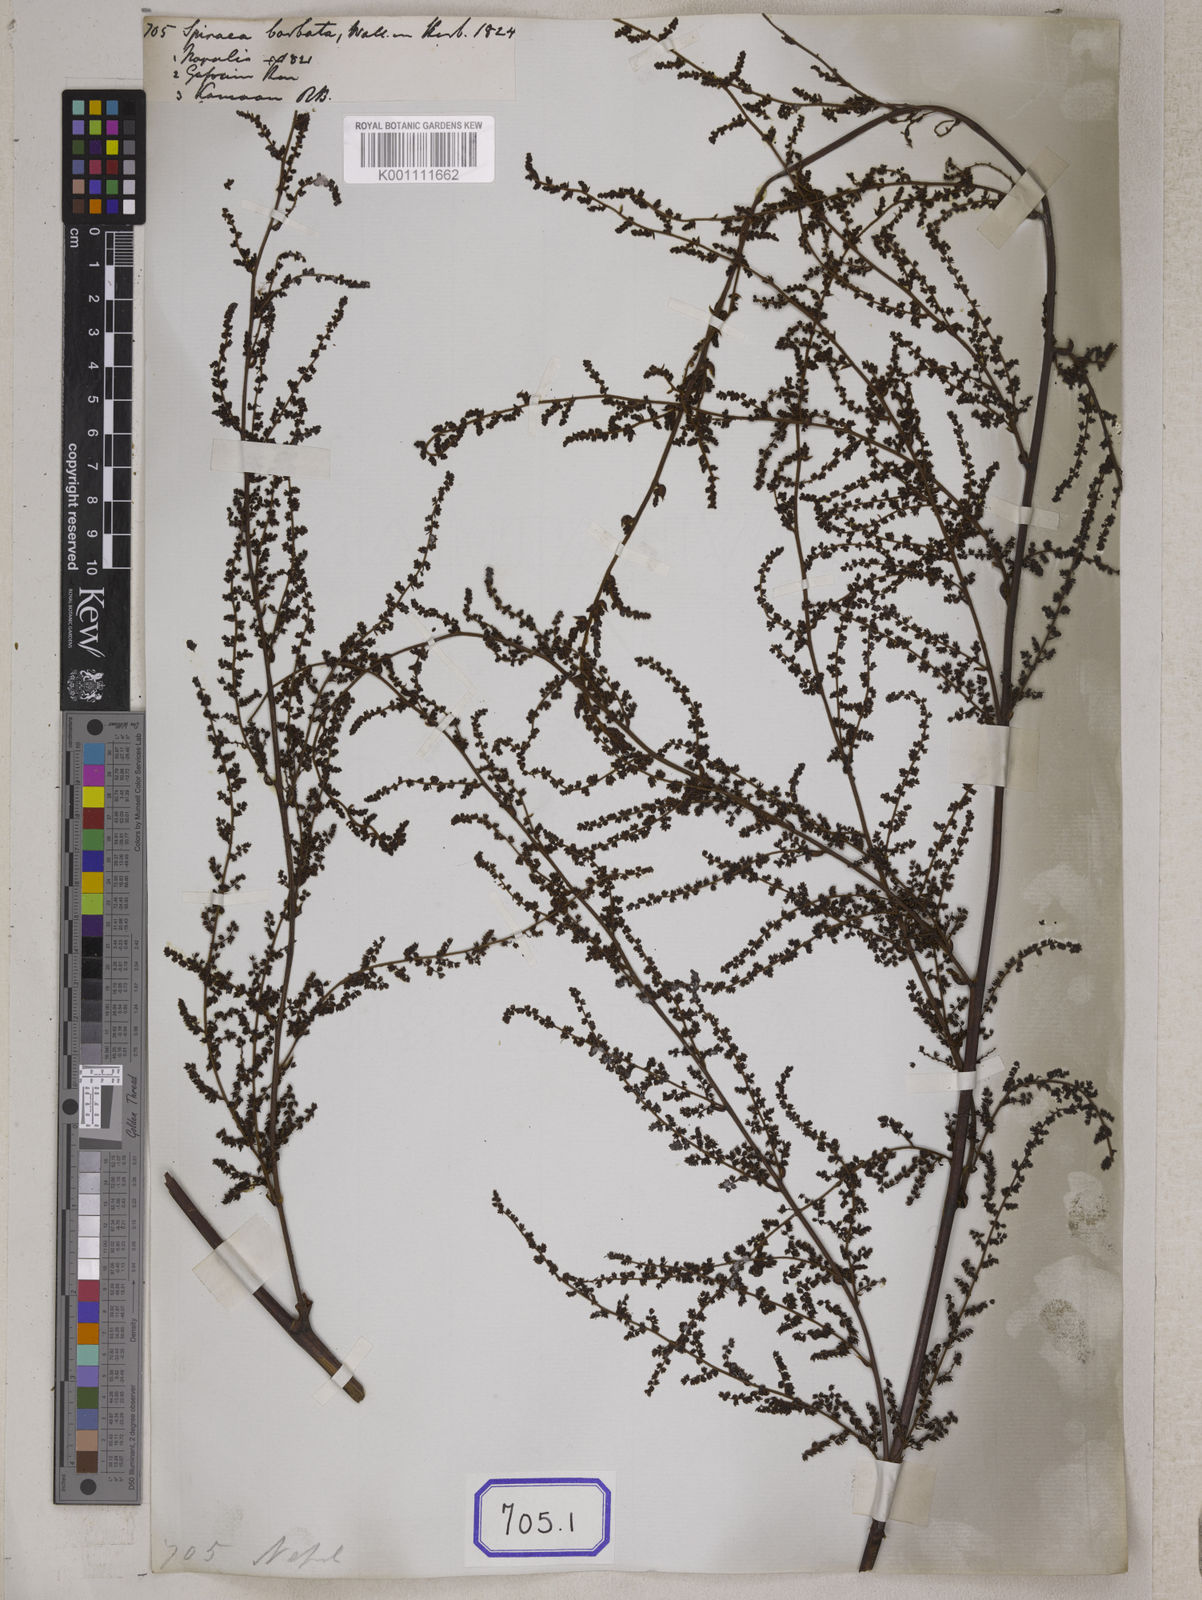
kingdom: Plantae
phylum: Tracheophyta
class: Magnoliopsida
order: Rosales
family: Rosaceae
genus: Spiraea
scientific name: Spiraea
